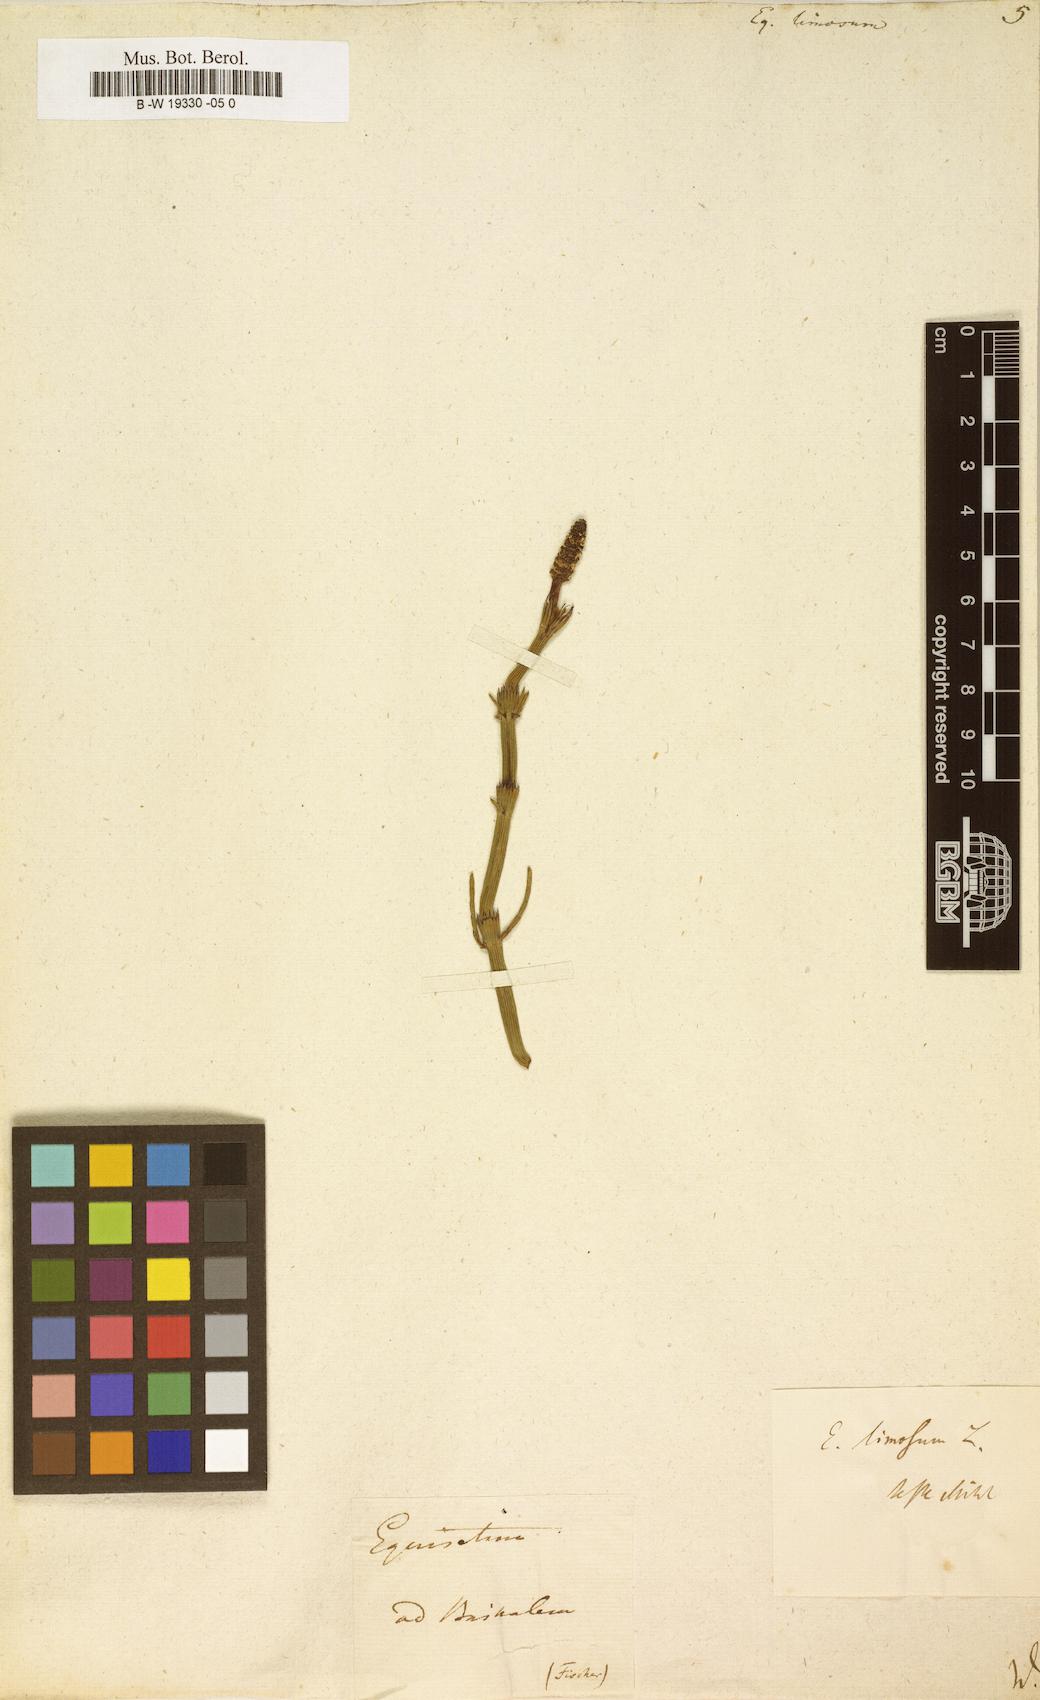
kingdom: Plantae
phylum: Tracheophyta
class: Polypodiopsida
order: Equisetales
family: Equisetaceae
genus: Equisetum
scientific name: Equisetum fluviatile
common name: Water horsetail
